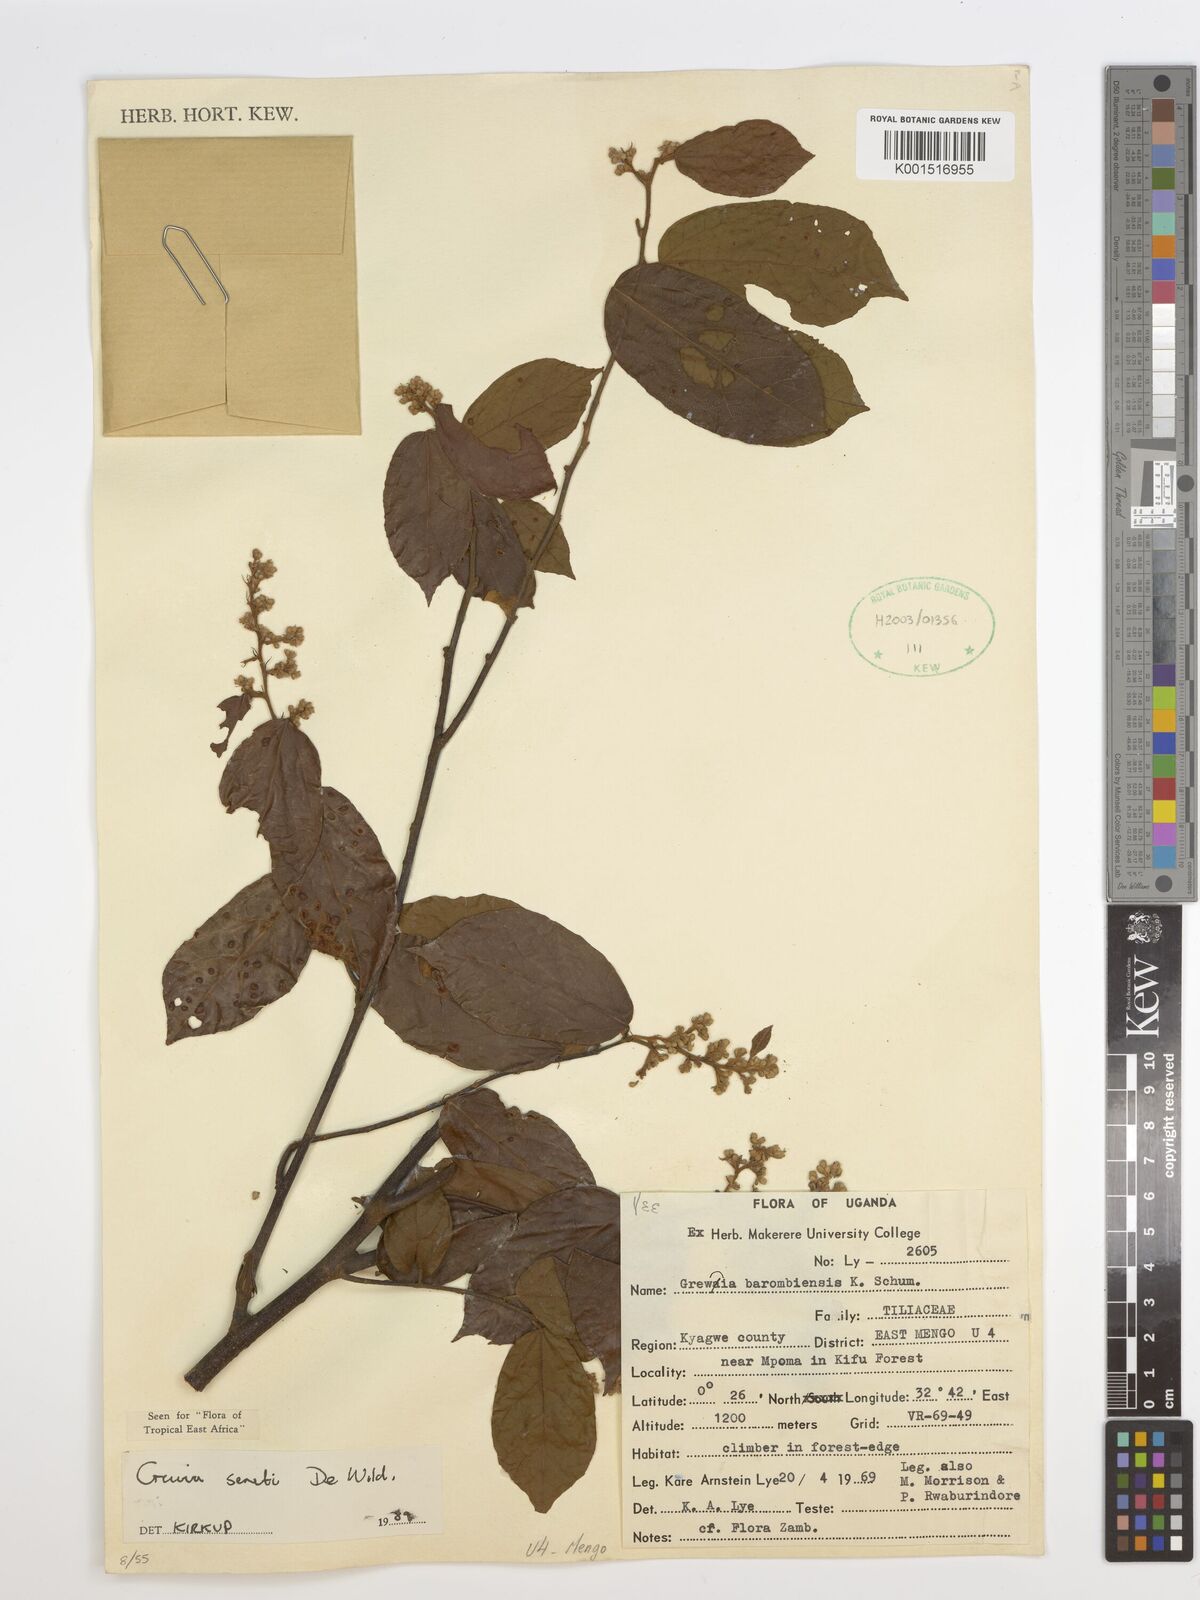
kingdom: Plantae
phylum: Tracheophyta
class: Magnoliopsida
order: Malvales
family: Malvaceae
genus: Microcos
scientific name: Microcos seretii
